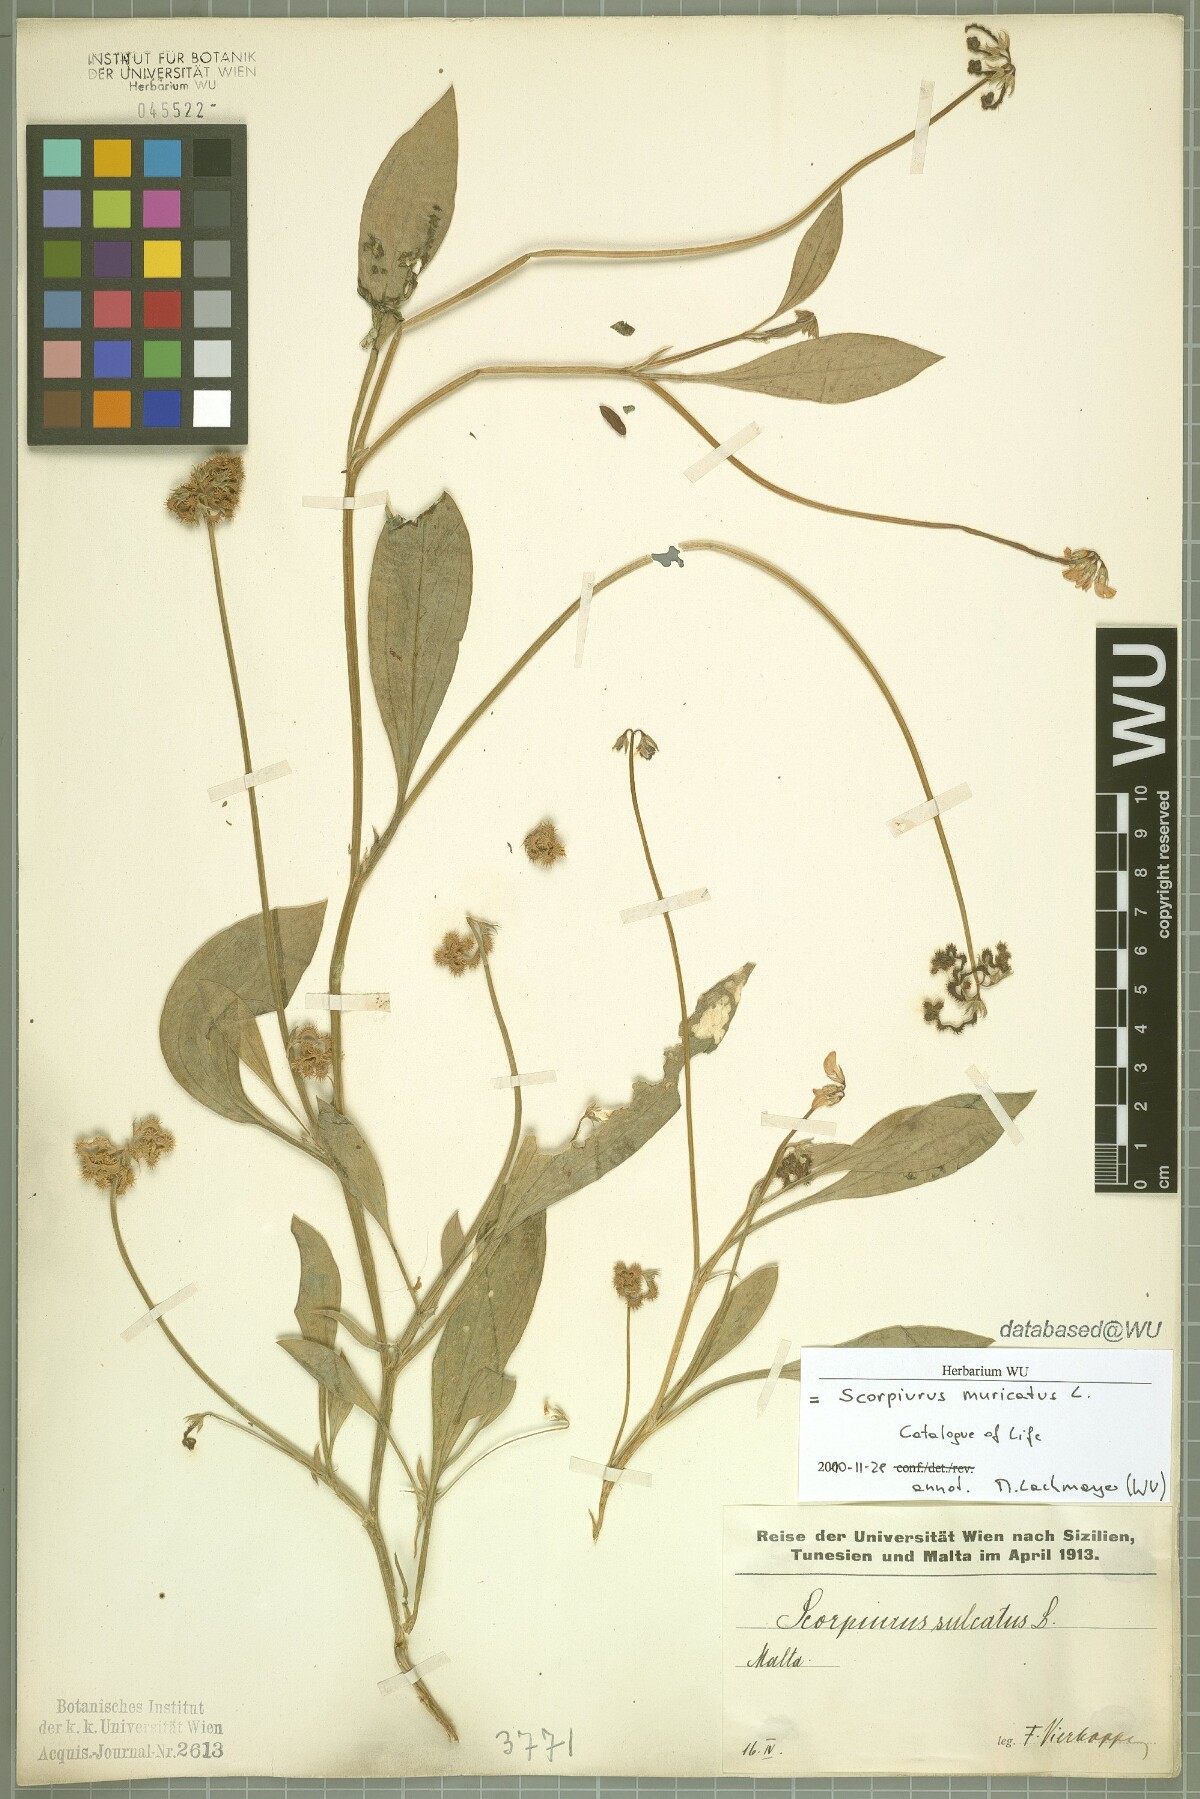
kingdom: Plantae
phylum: Tracheophyta
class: Magnoliopsida
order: Fabales
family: Fabaceae
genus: Scorpiurus
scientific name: Scorpiurus muricatus
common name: Caterpillar-plant
